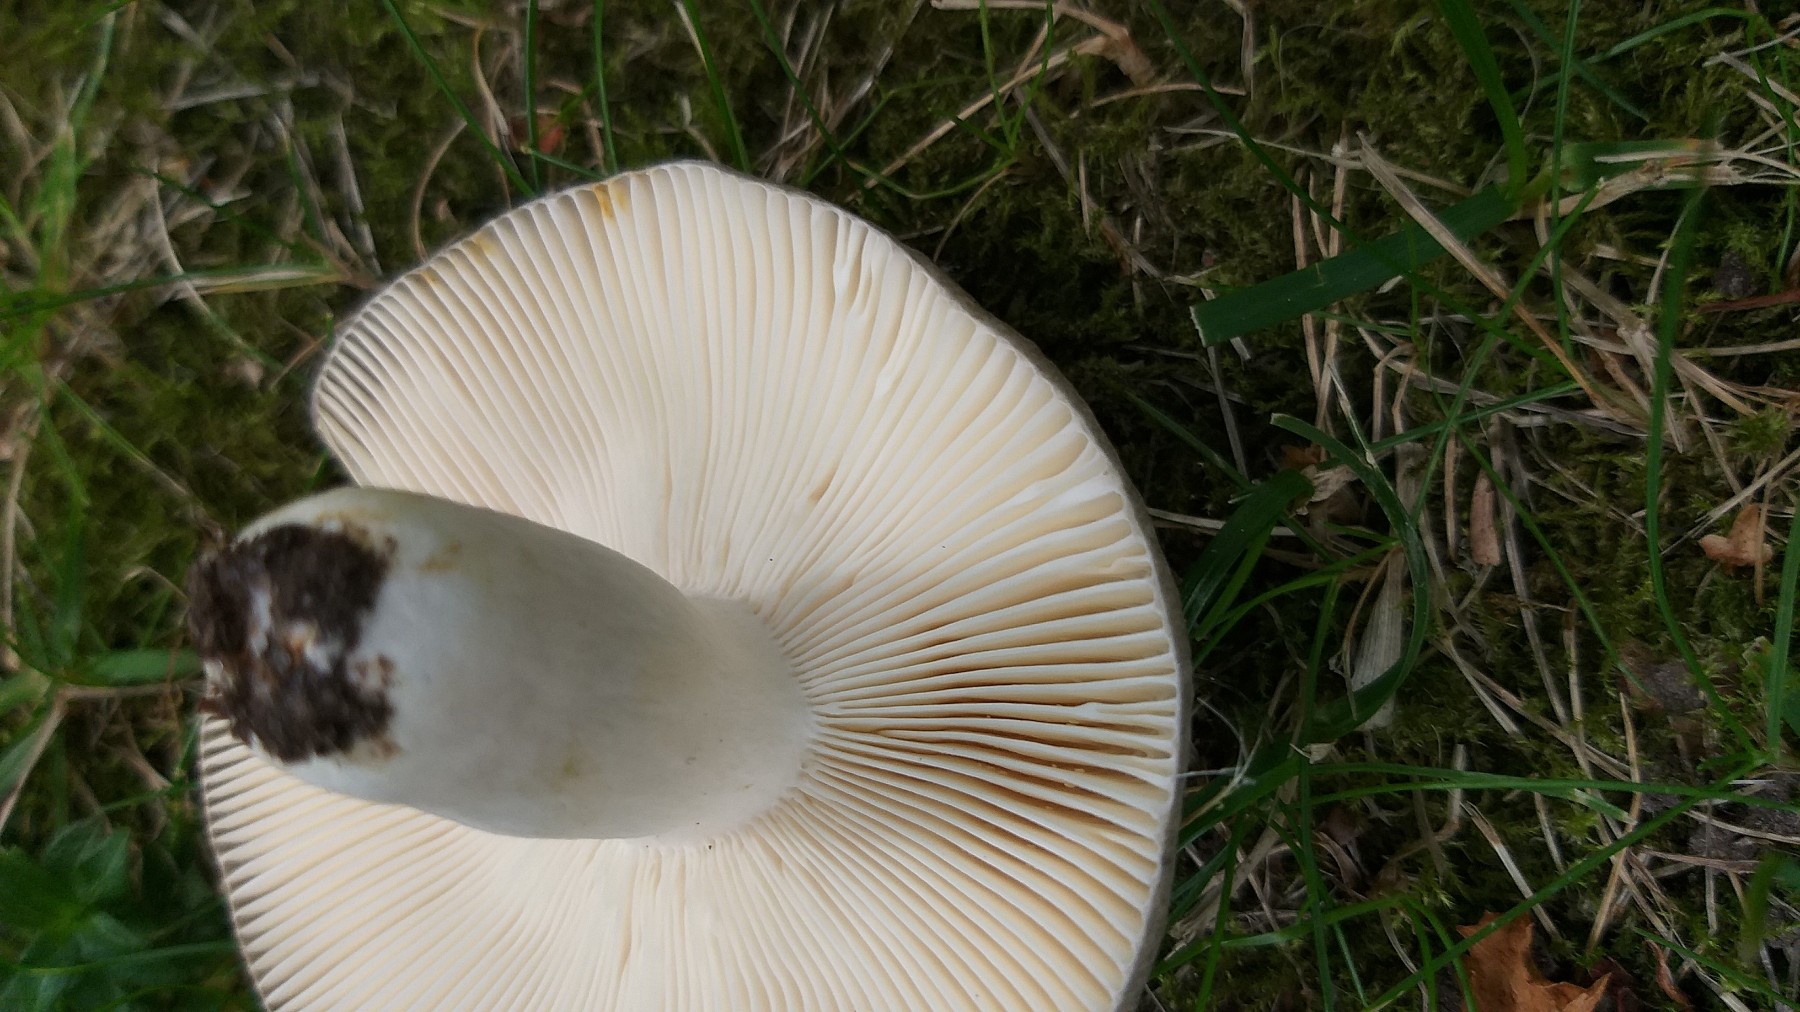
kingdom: Fungi
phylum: Basidiomycota
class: Agaricomycetes
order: Russulales
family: Russulaceae
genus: Russula
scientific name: Russula cyanoxantha
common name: broget skørhat
